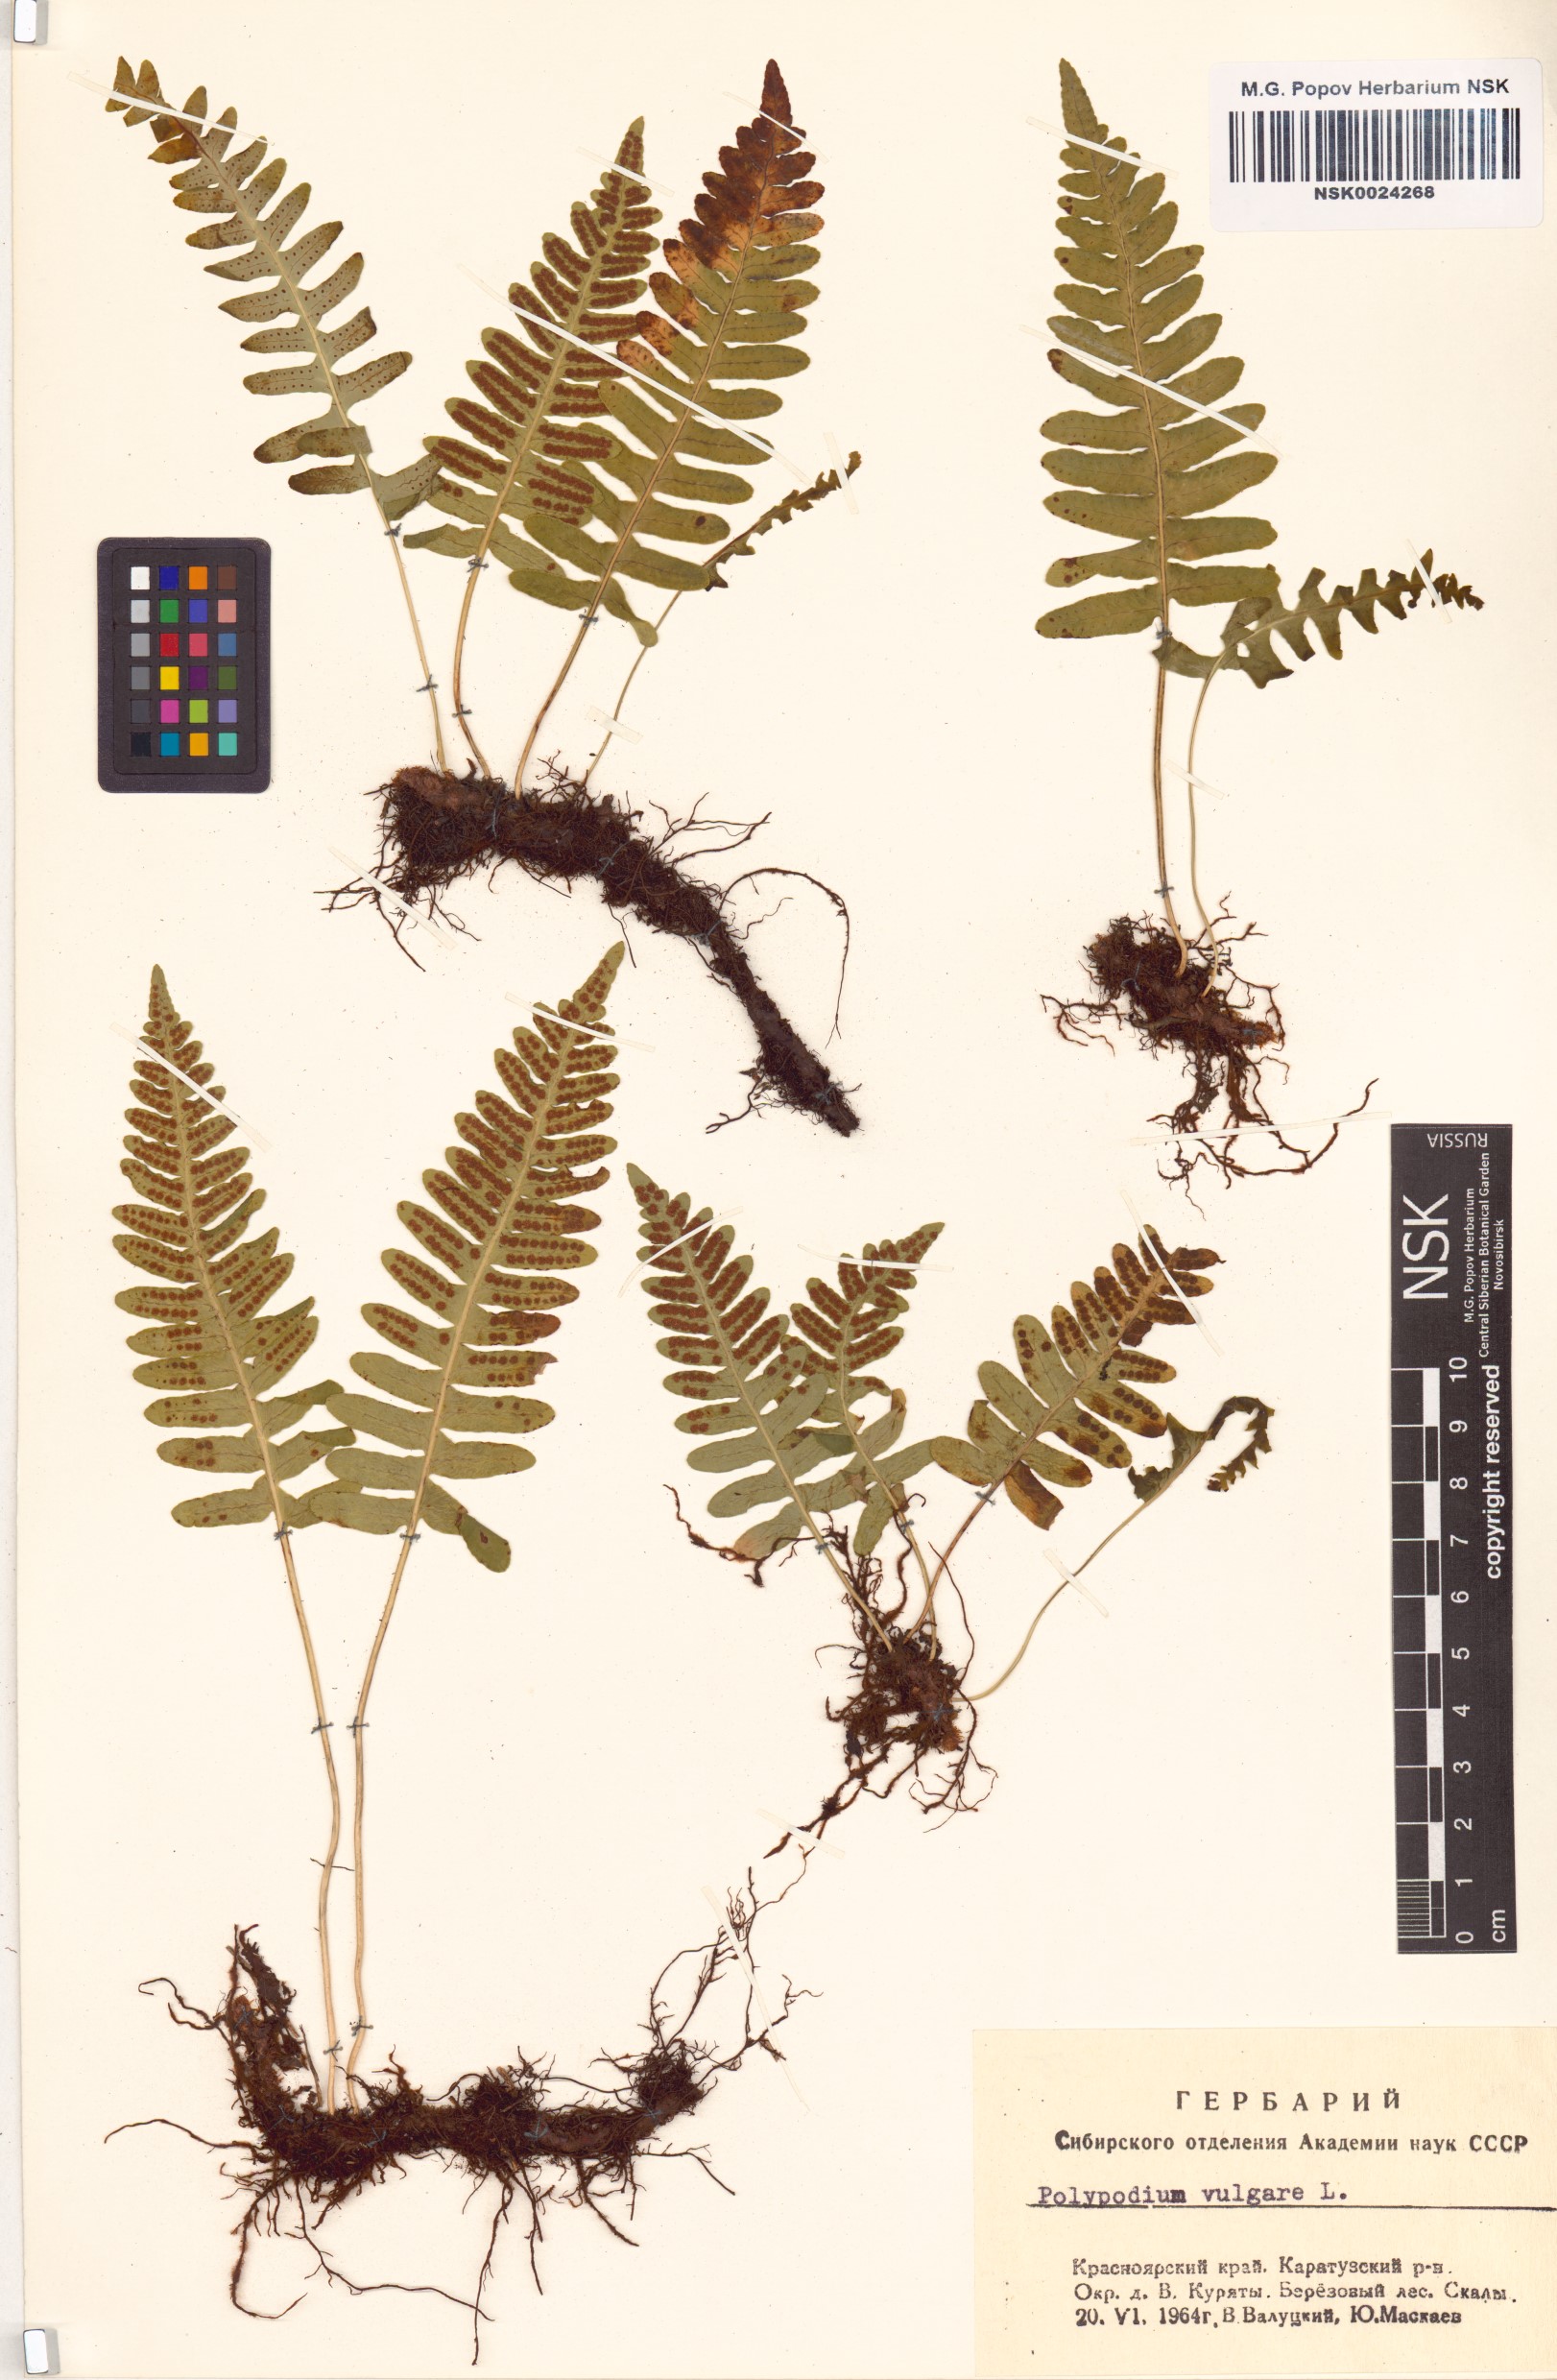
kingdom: Plantae
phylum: Tracheophyta
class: Polypodiopsida
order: Polypodiales
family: Polypodiaceae
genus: Polypodium
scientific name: Polypodium vulgare
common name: Common polypody
